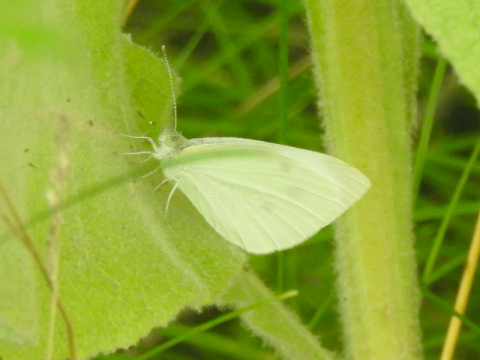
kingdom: Animalia
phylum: Arthropoda
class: Insecta
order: Lepidoptera
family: Pieridae
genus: Pieris
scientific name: Pieris rapae
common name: Cabbage White
